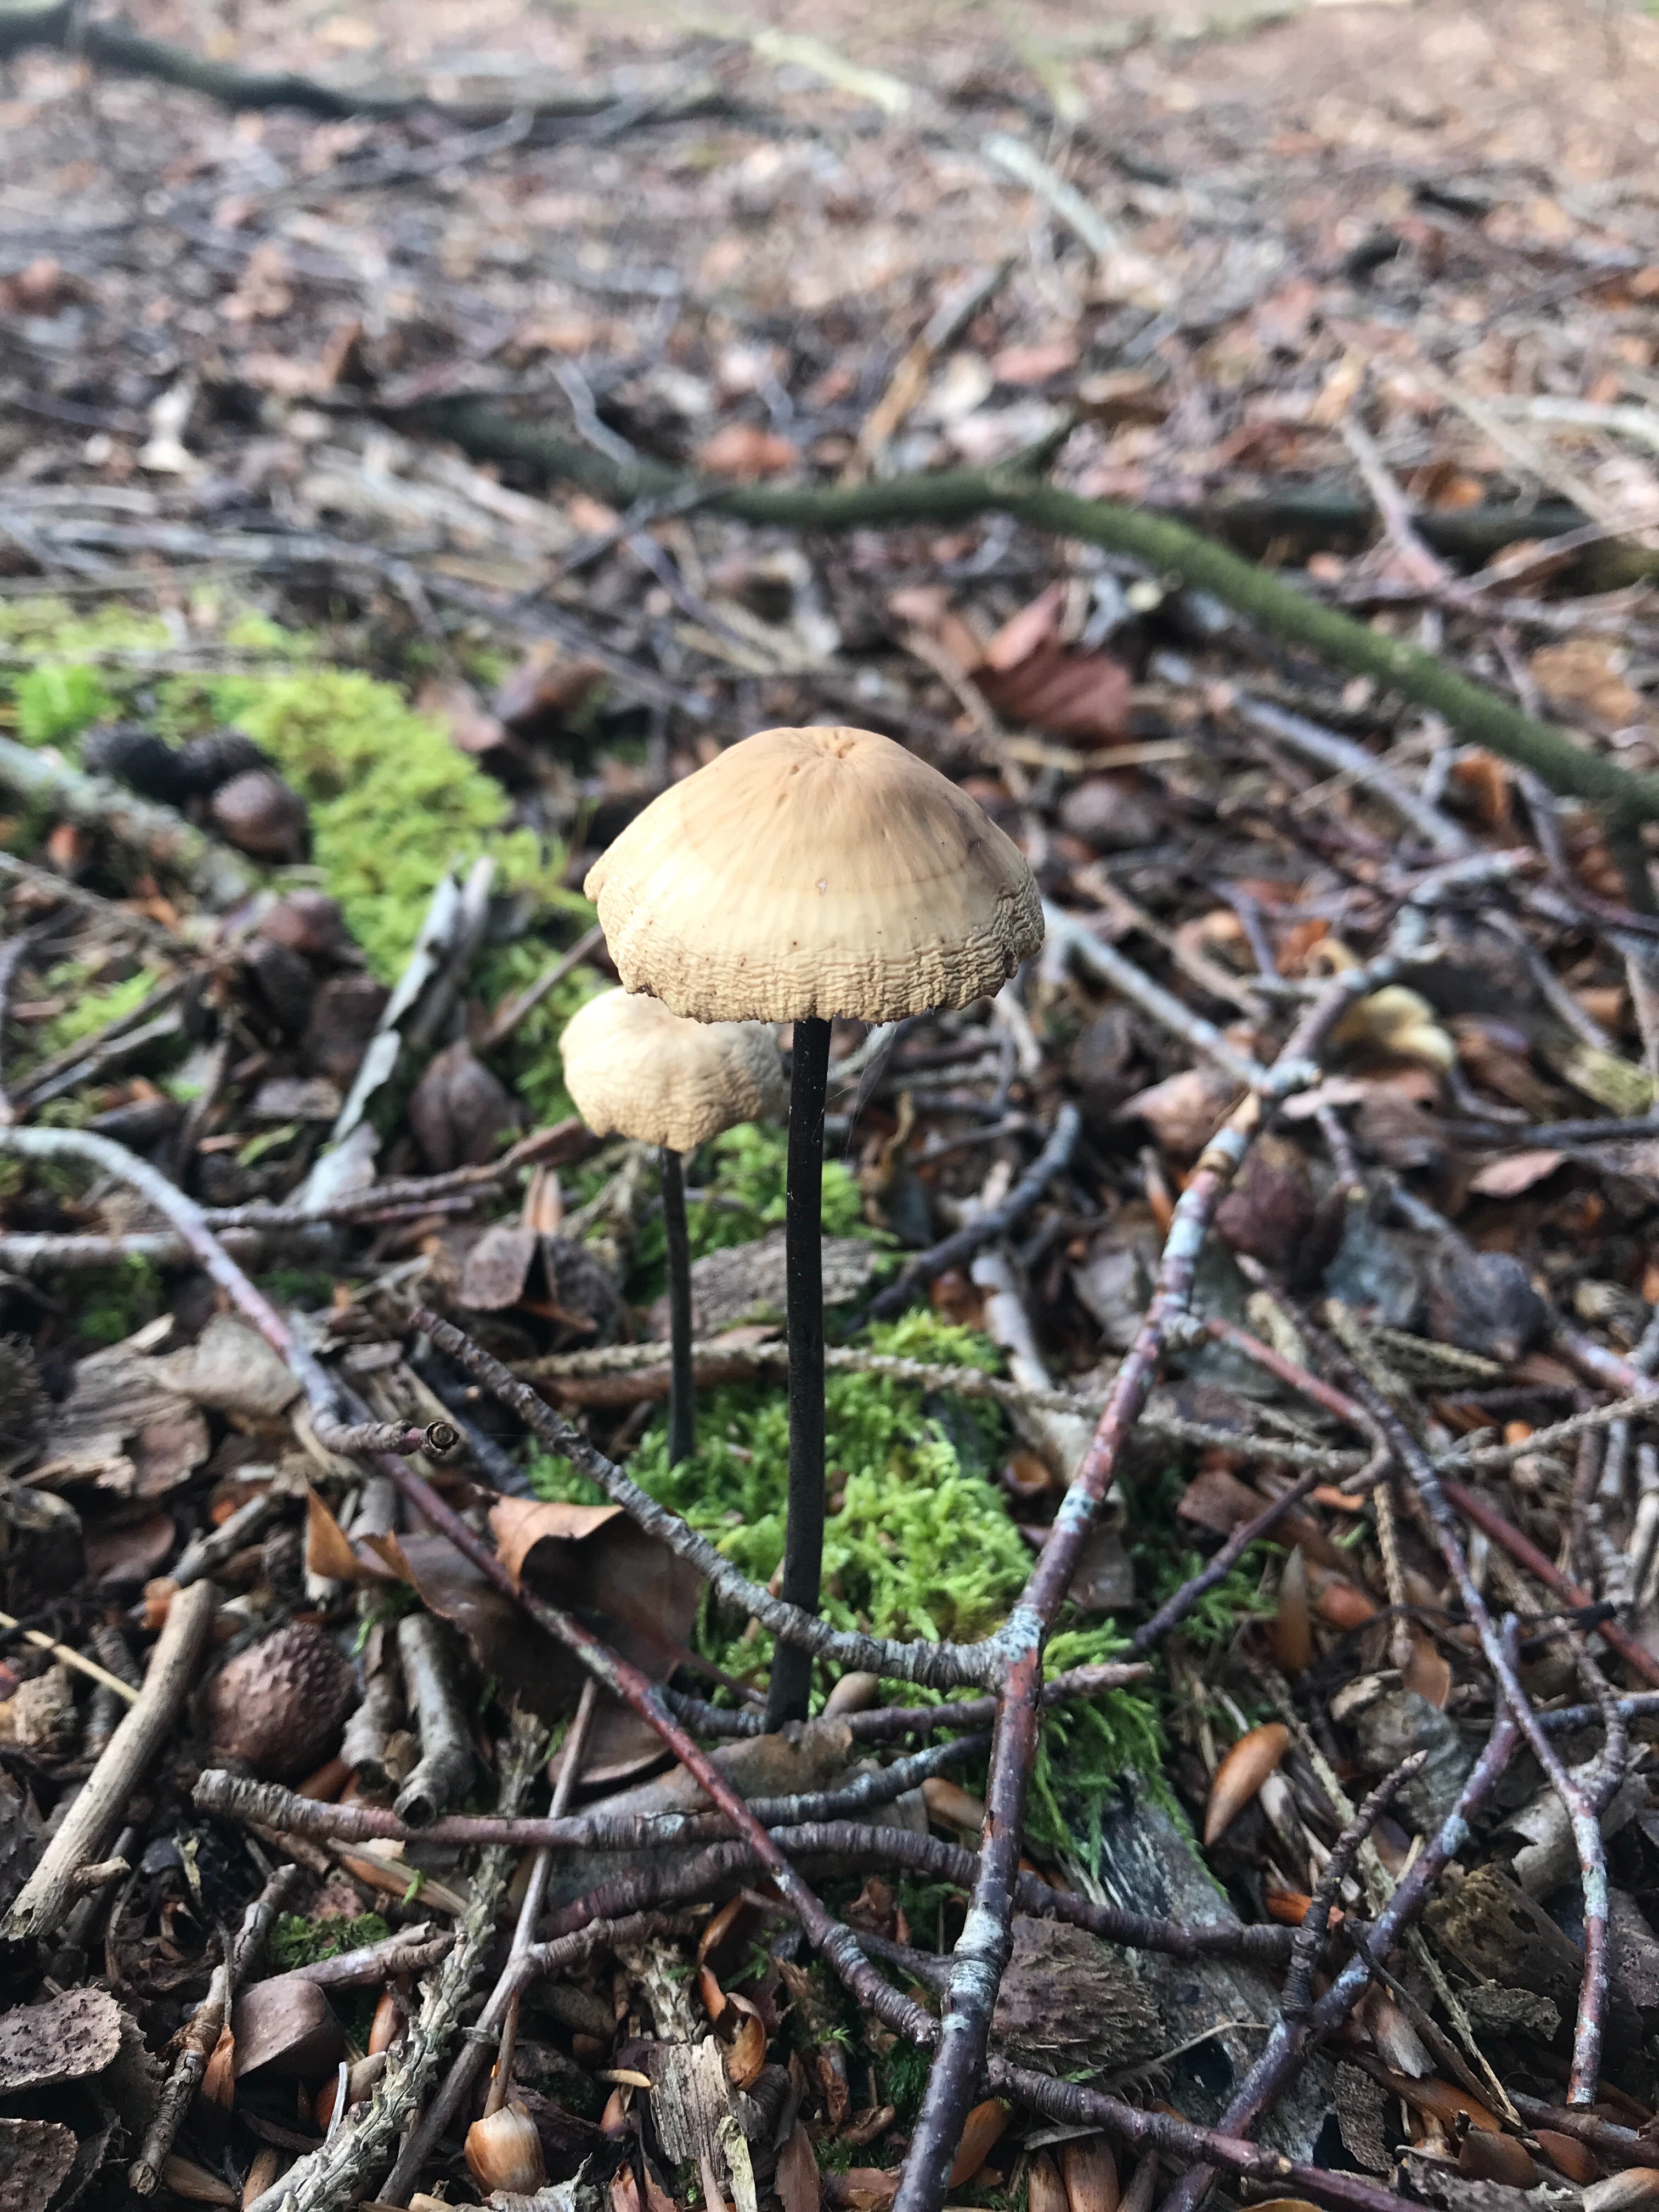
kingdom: Fungi
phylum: Basidiomycota
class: Agaricomycetes
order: Agaricales
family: Omphalotaceae
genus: Mycetinis
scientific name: Mycetinis alliaceus
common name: stor løghat
